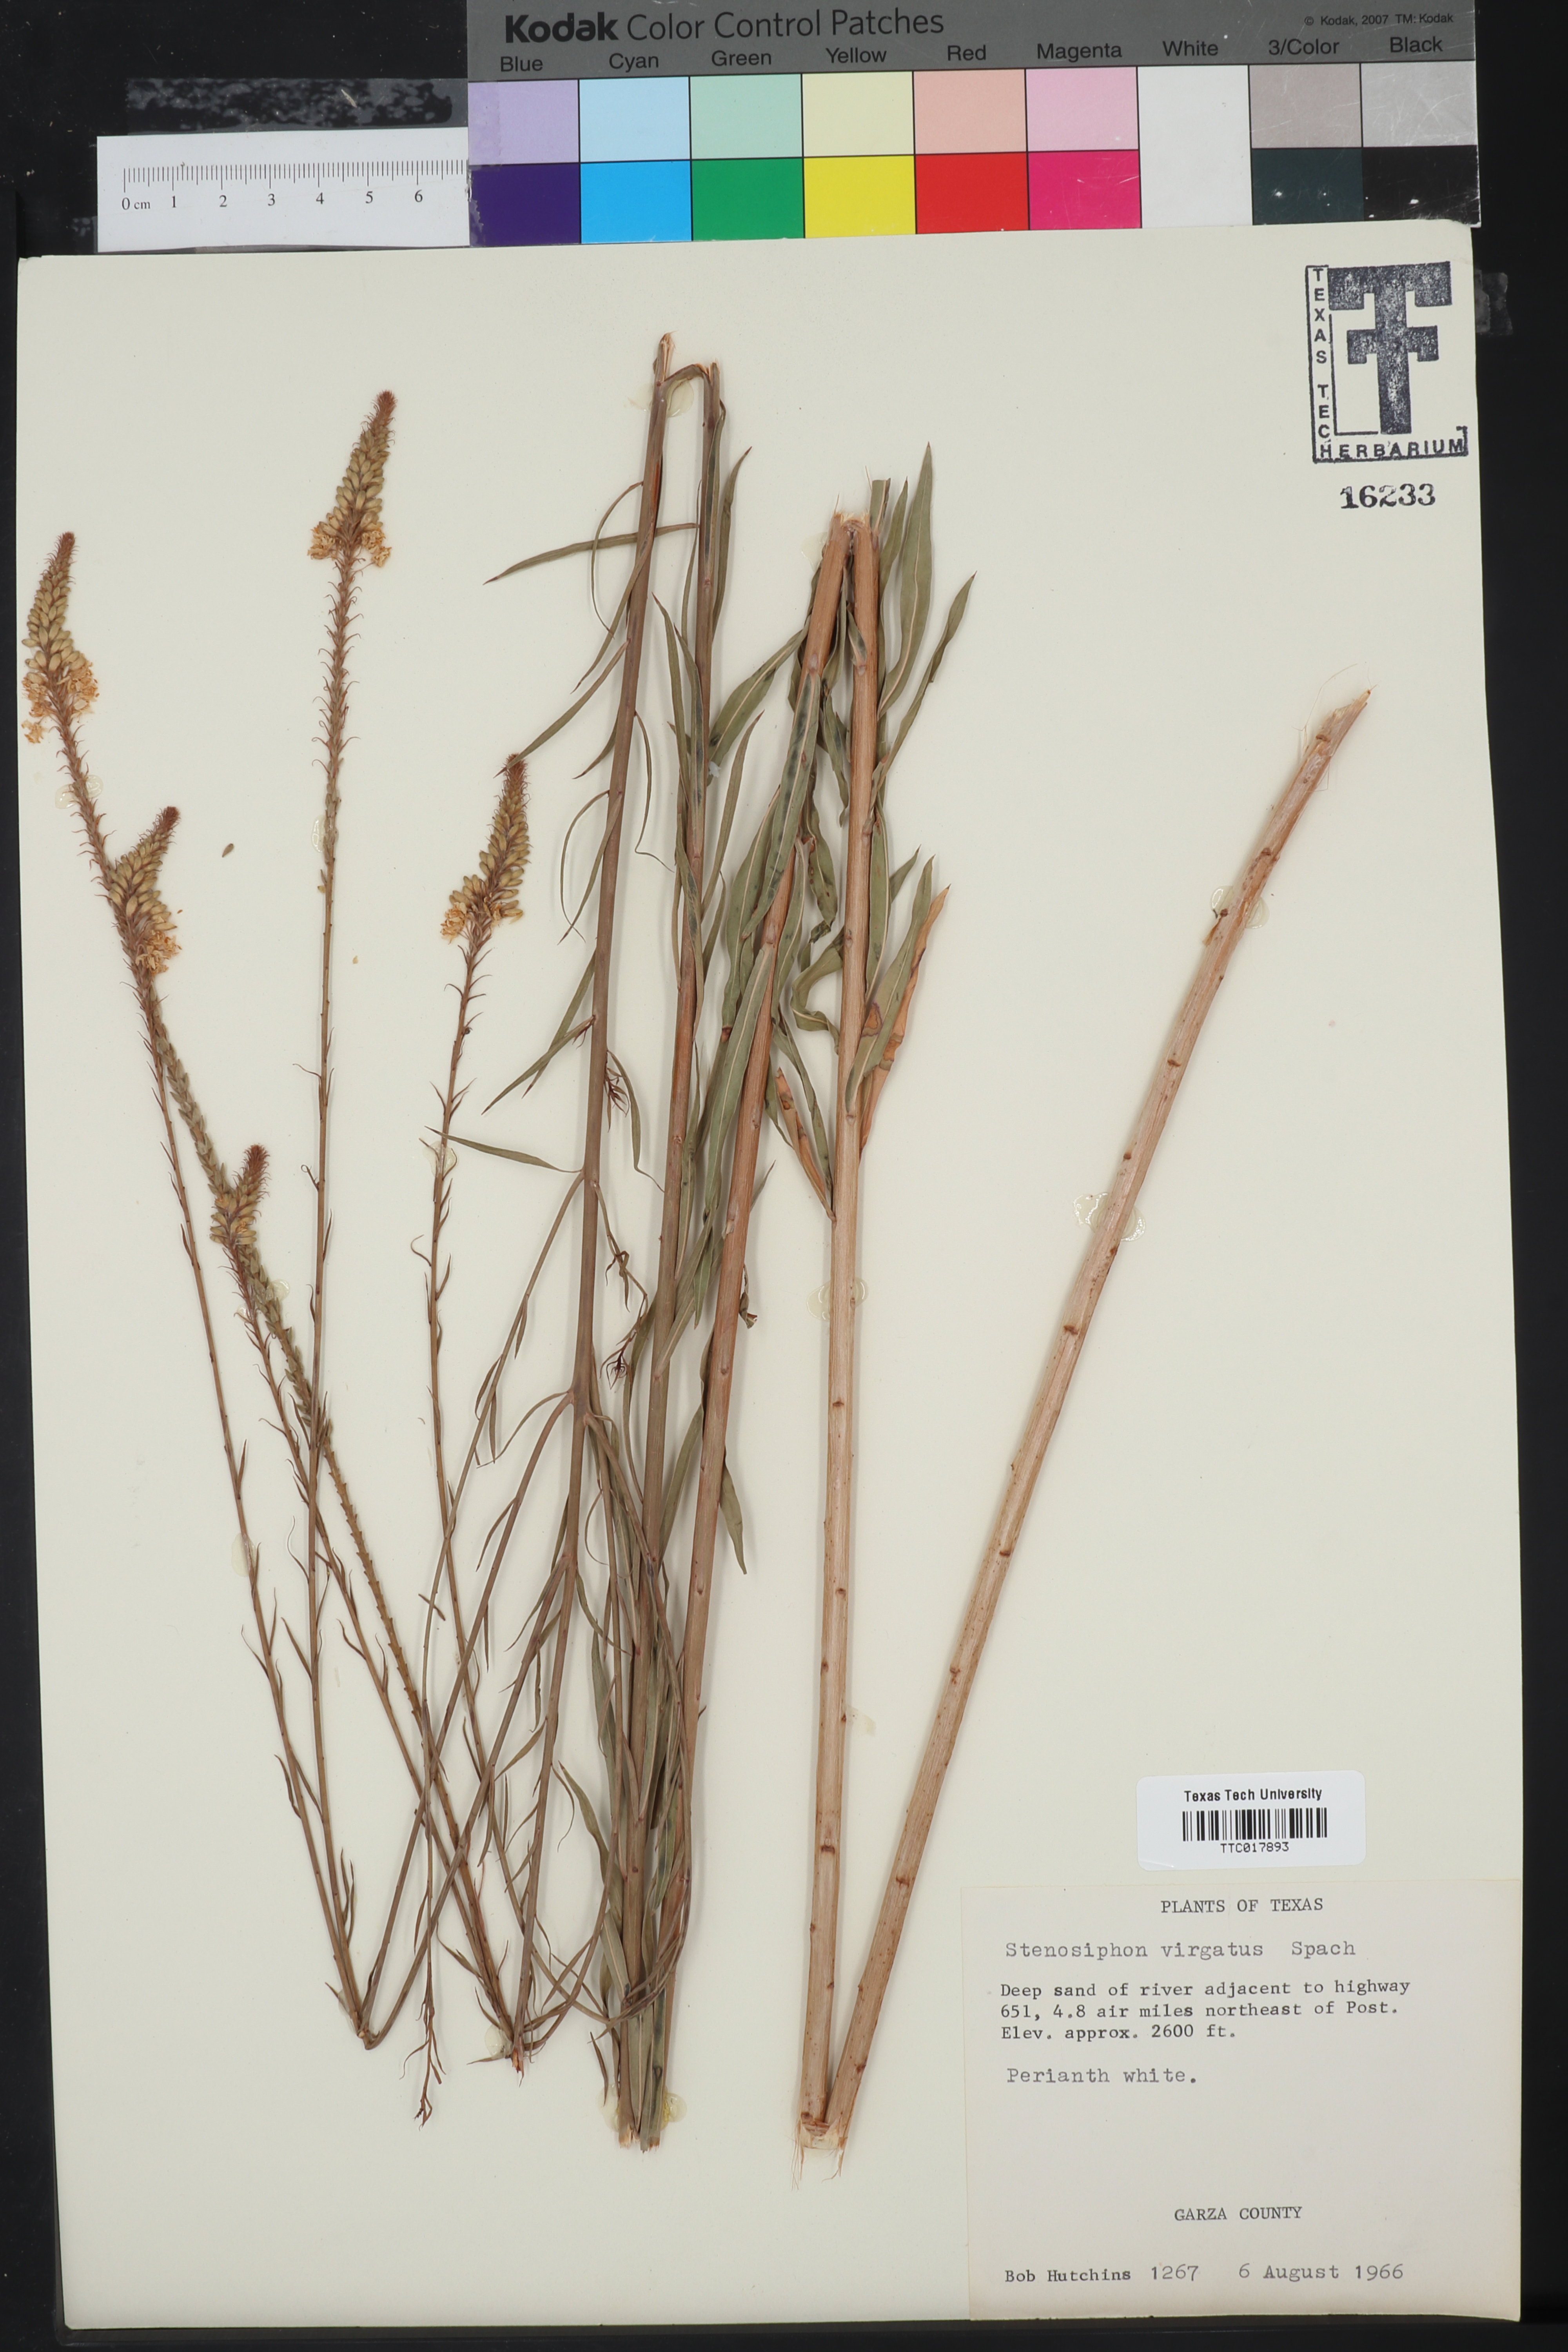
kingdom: Plantae
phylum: Tracheophyta
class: Magnoliopsida
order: Myrtales
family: Onagraceae
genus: Oenothera
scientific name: Oenothera glaucifolia
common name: False gaura
